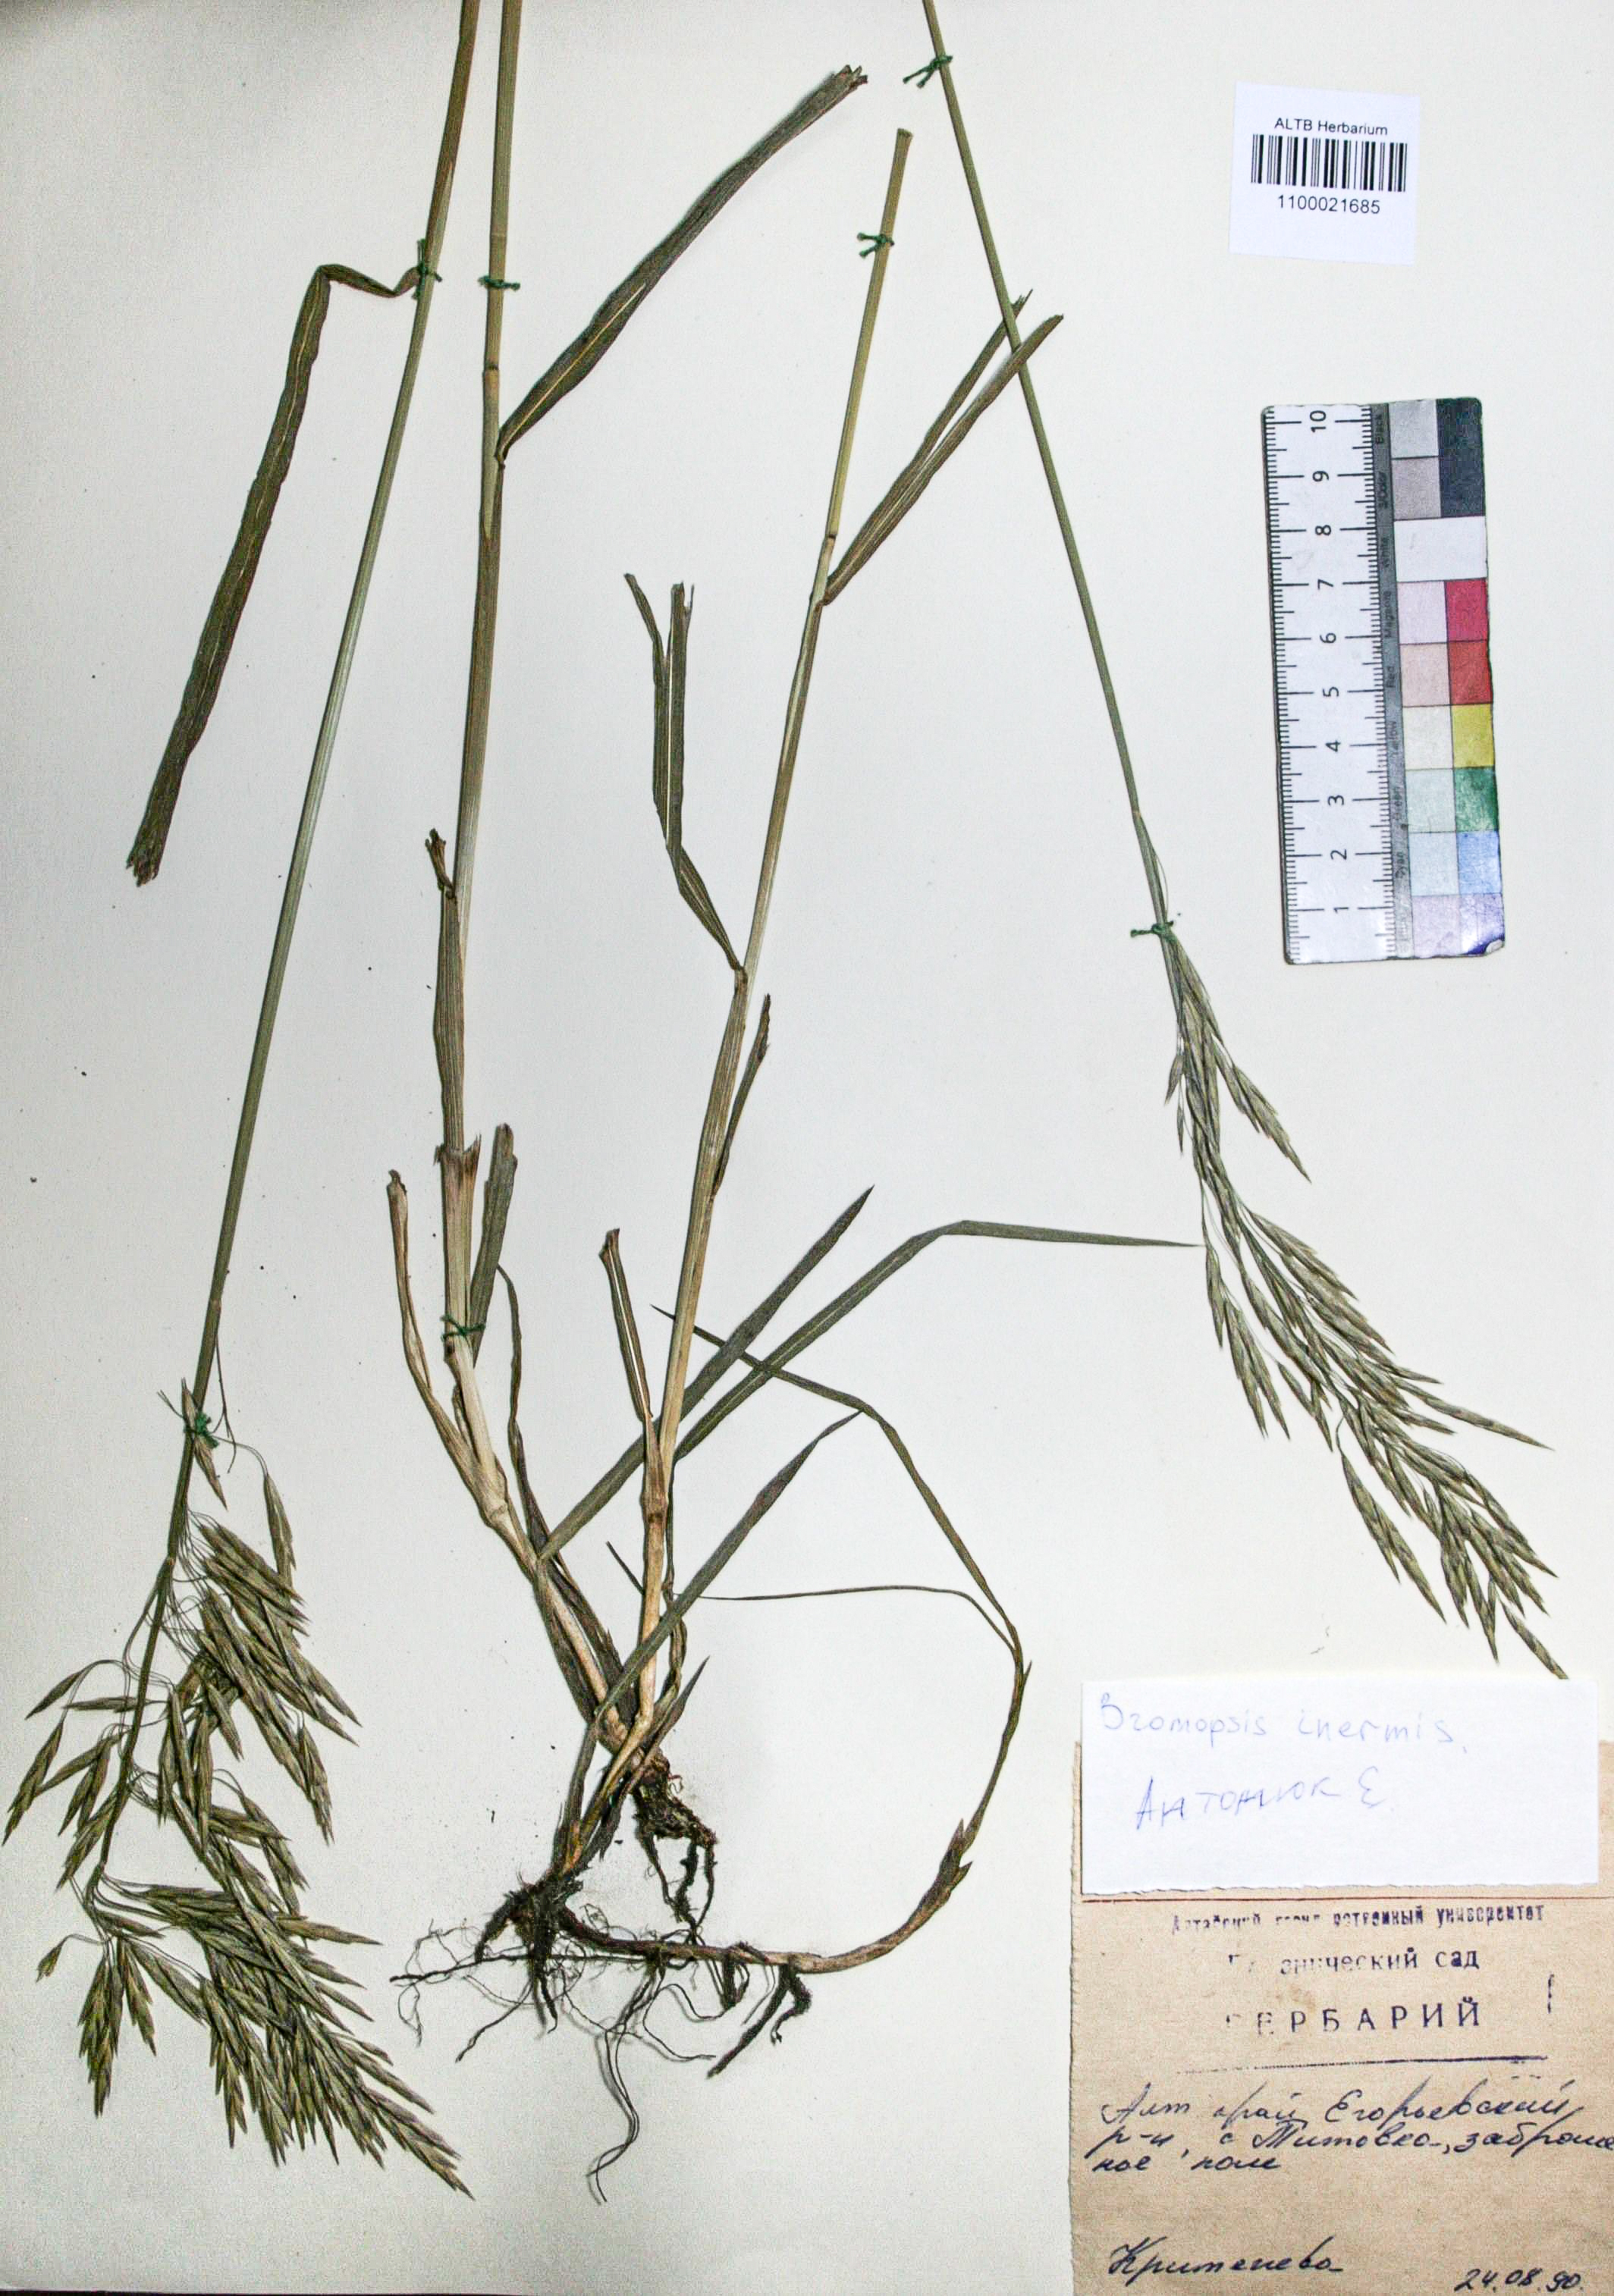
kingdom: Plantae
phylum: Tracheophyta
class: Liliopsida
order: Poales
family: Poaceae
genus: Bromus
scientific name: Bromus inermis
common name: Smooth brome
